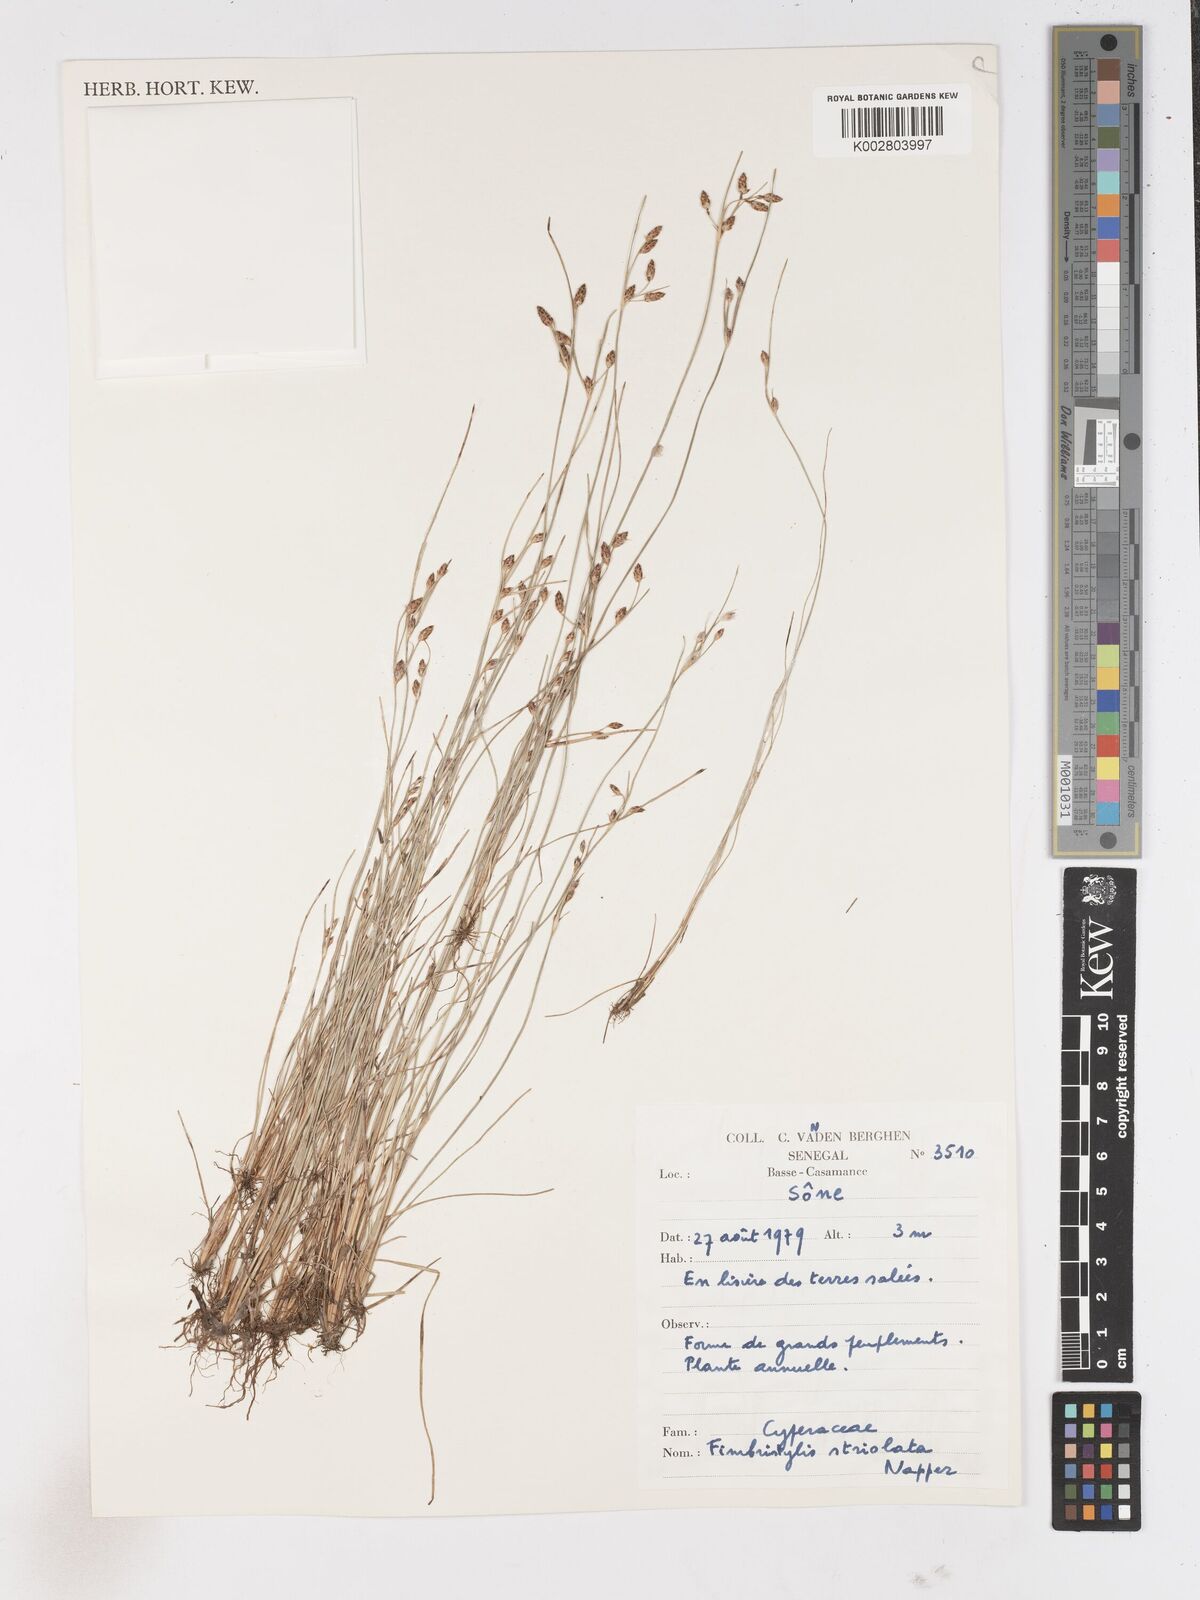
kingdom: Plantae
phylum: Tracheophyta
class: Liliopsida
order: Poales
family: Cyperaceae
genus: Fimbristylis
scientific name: Fimbristylis striolata
